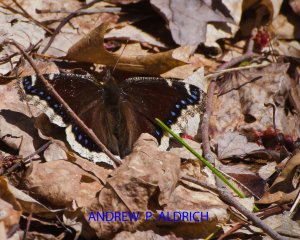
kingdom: Animalia
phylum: Arthropoda
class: Insecta
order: Lepidoptera
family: Nymphalidae
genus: Nymphalis
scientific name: Nymphalis antiopa
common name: Mourning Cloak
